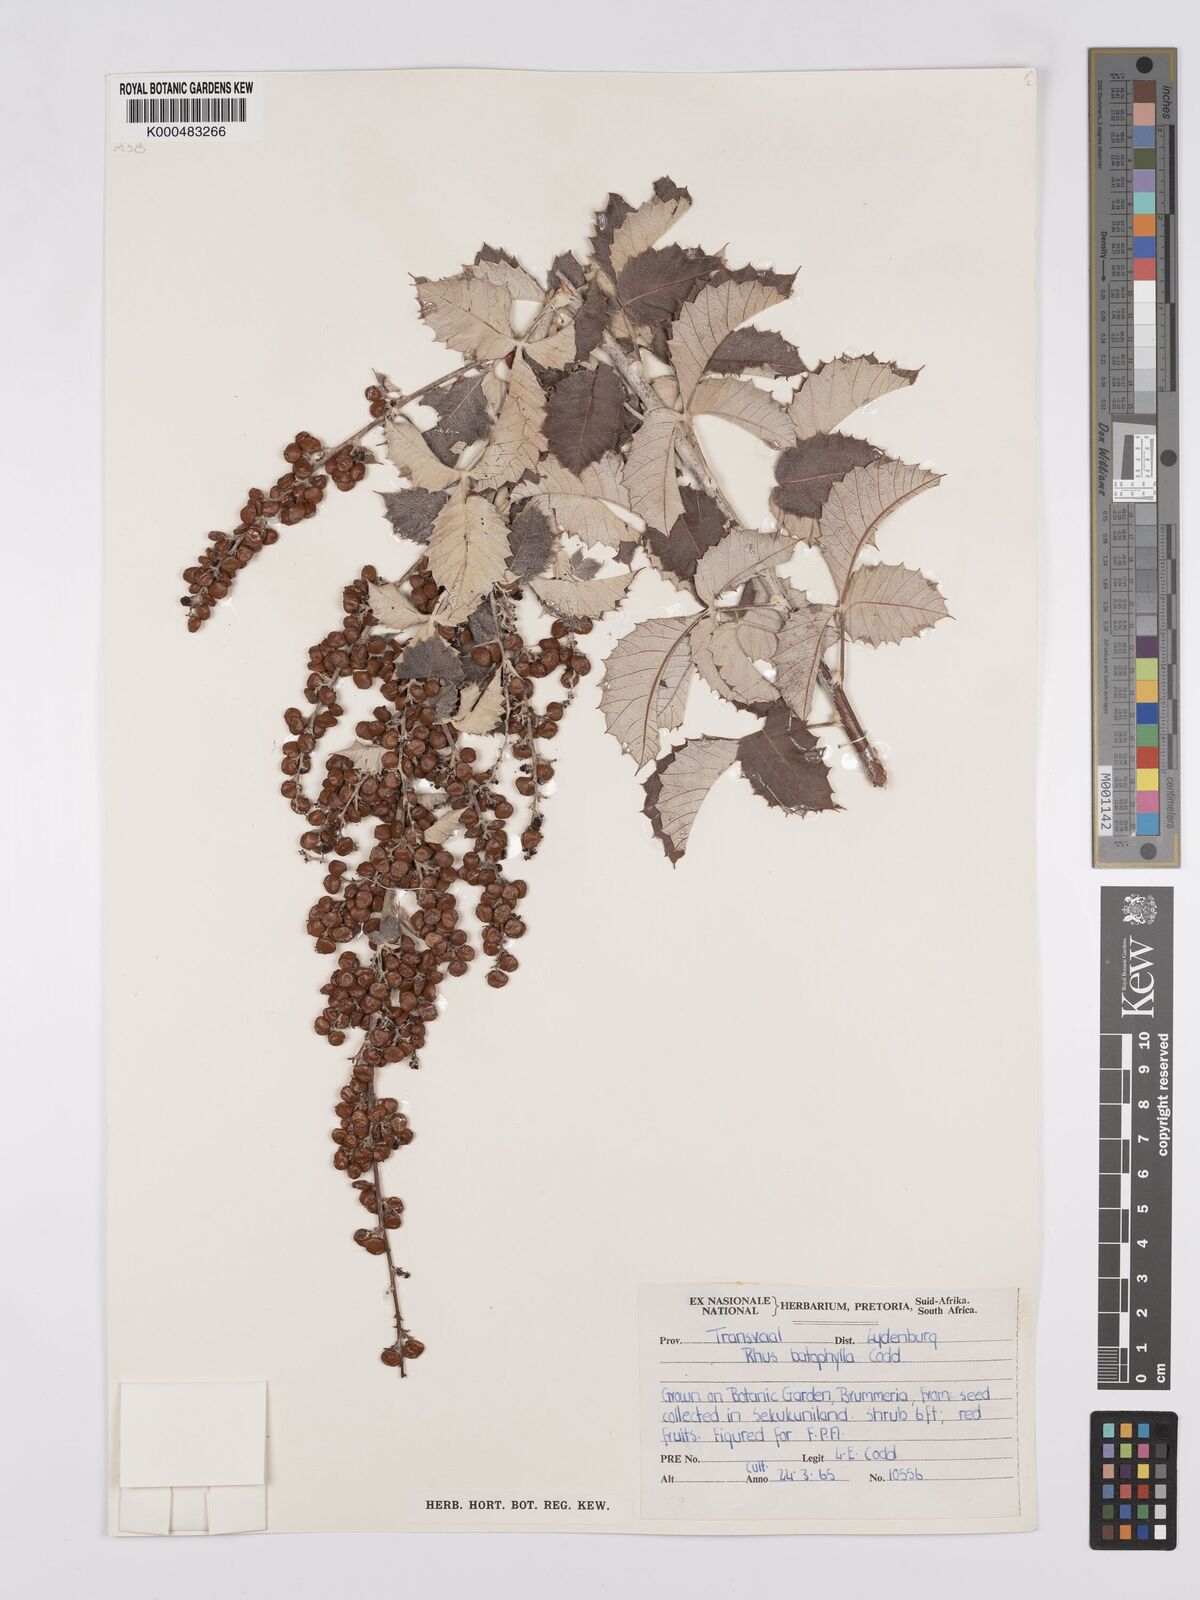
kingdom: Plantae
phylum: Tracheophyta
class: Magnoliopsida
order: Sapindales
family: Anacardiaceae
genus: Searsia
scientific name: Searsia batophylla
